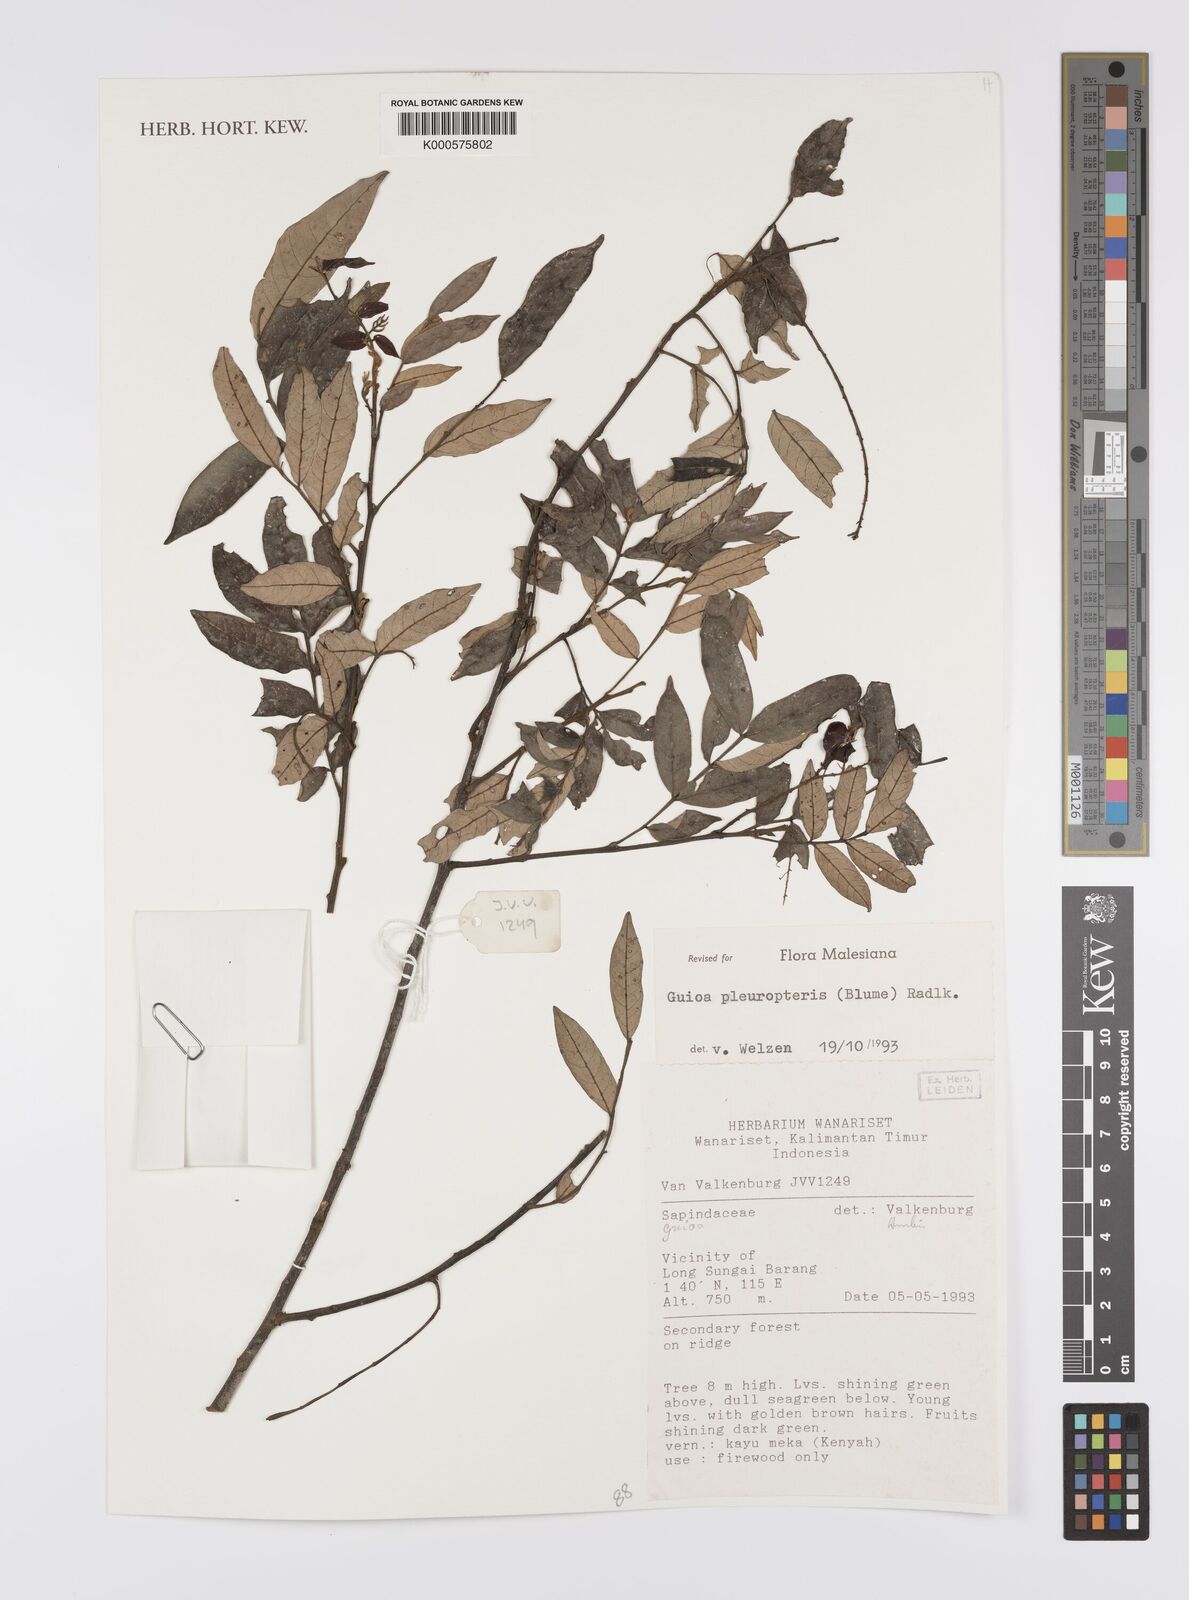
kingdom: Plantae
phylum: Tracheophyta
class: Magnoliopsida
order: Sapindales
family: Sapindaceae
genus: Guioa
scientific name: Guioa pleuropteris
